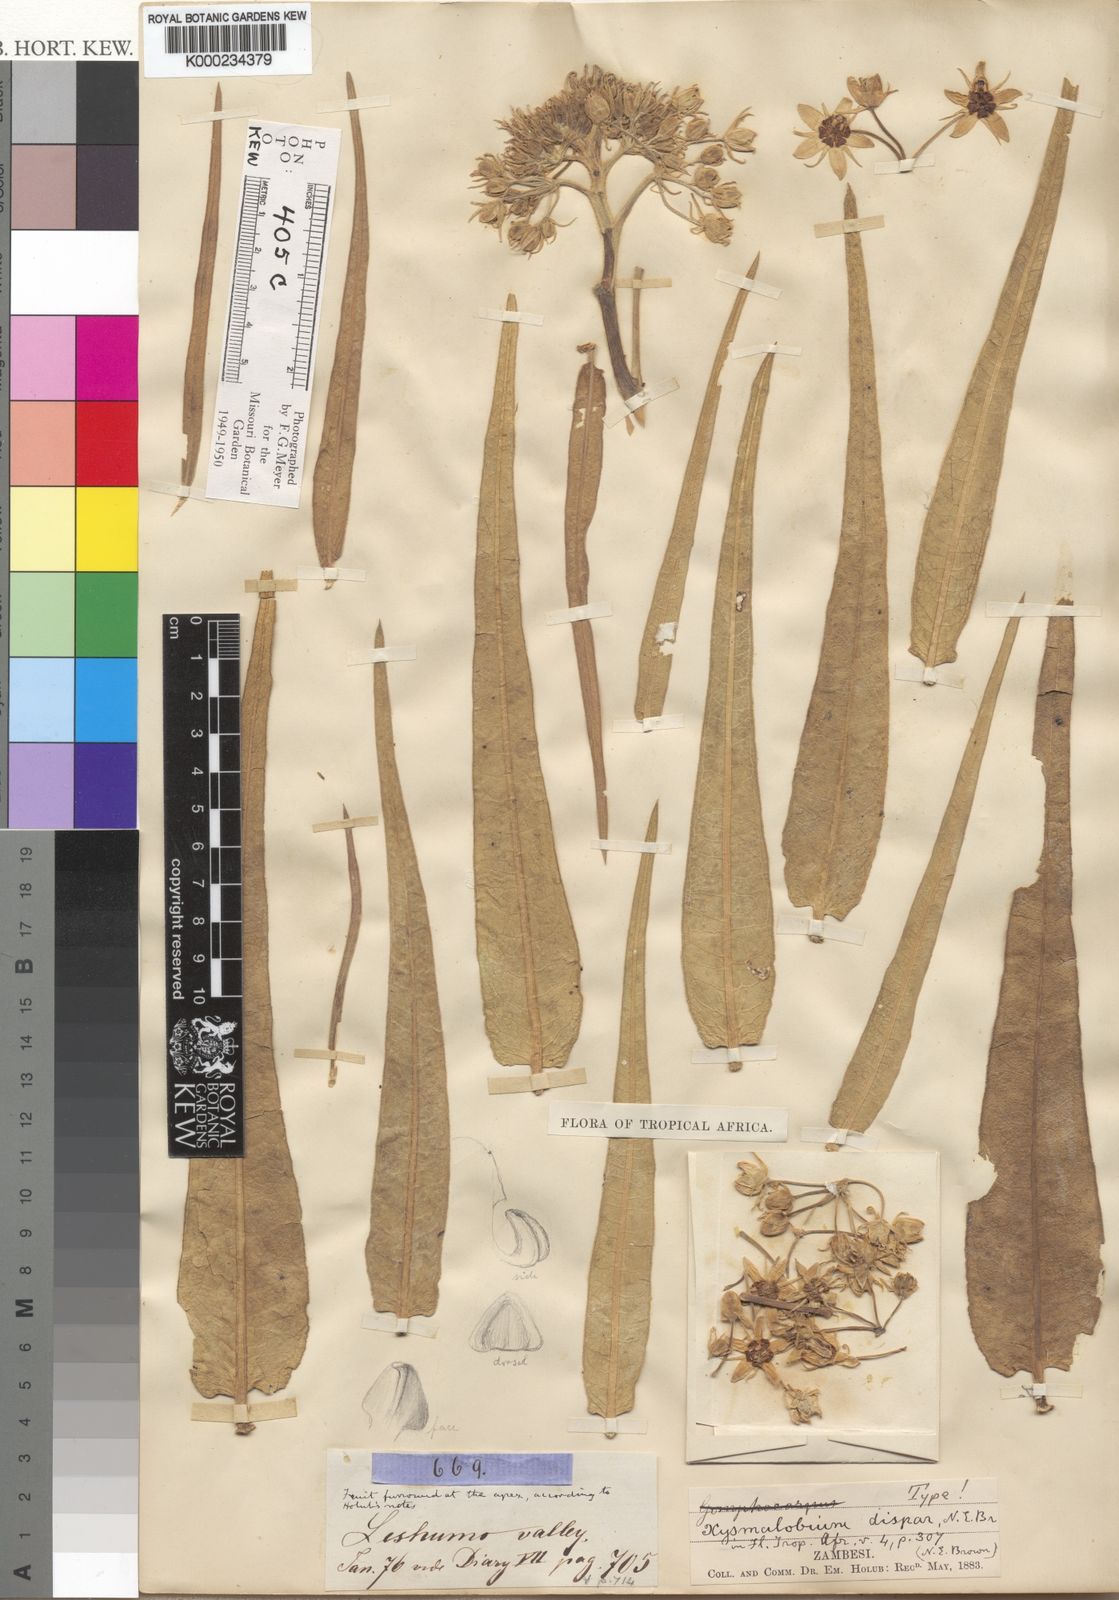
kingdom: Plantae
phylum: Tracheophyta
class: Magnoliopsida
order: Gentianales
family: Apocynaceae
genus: Xysmalobium
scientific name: Xysmalobium undulatum
